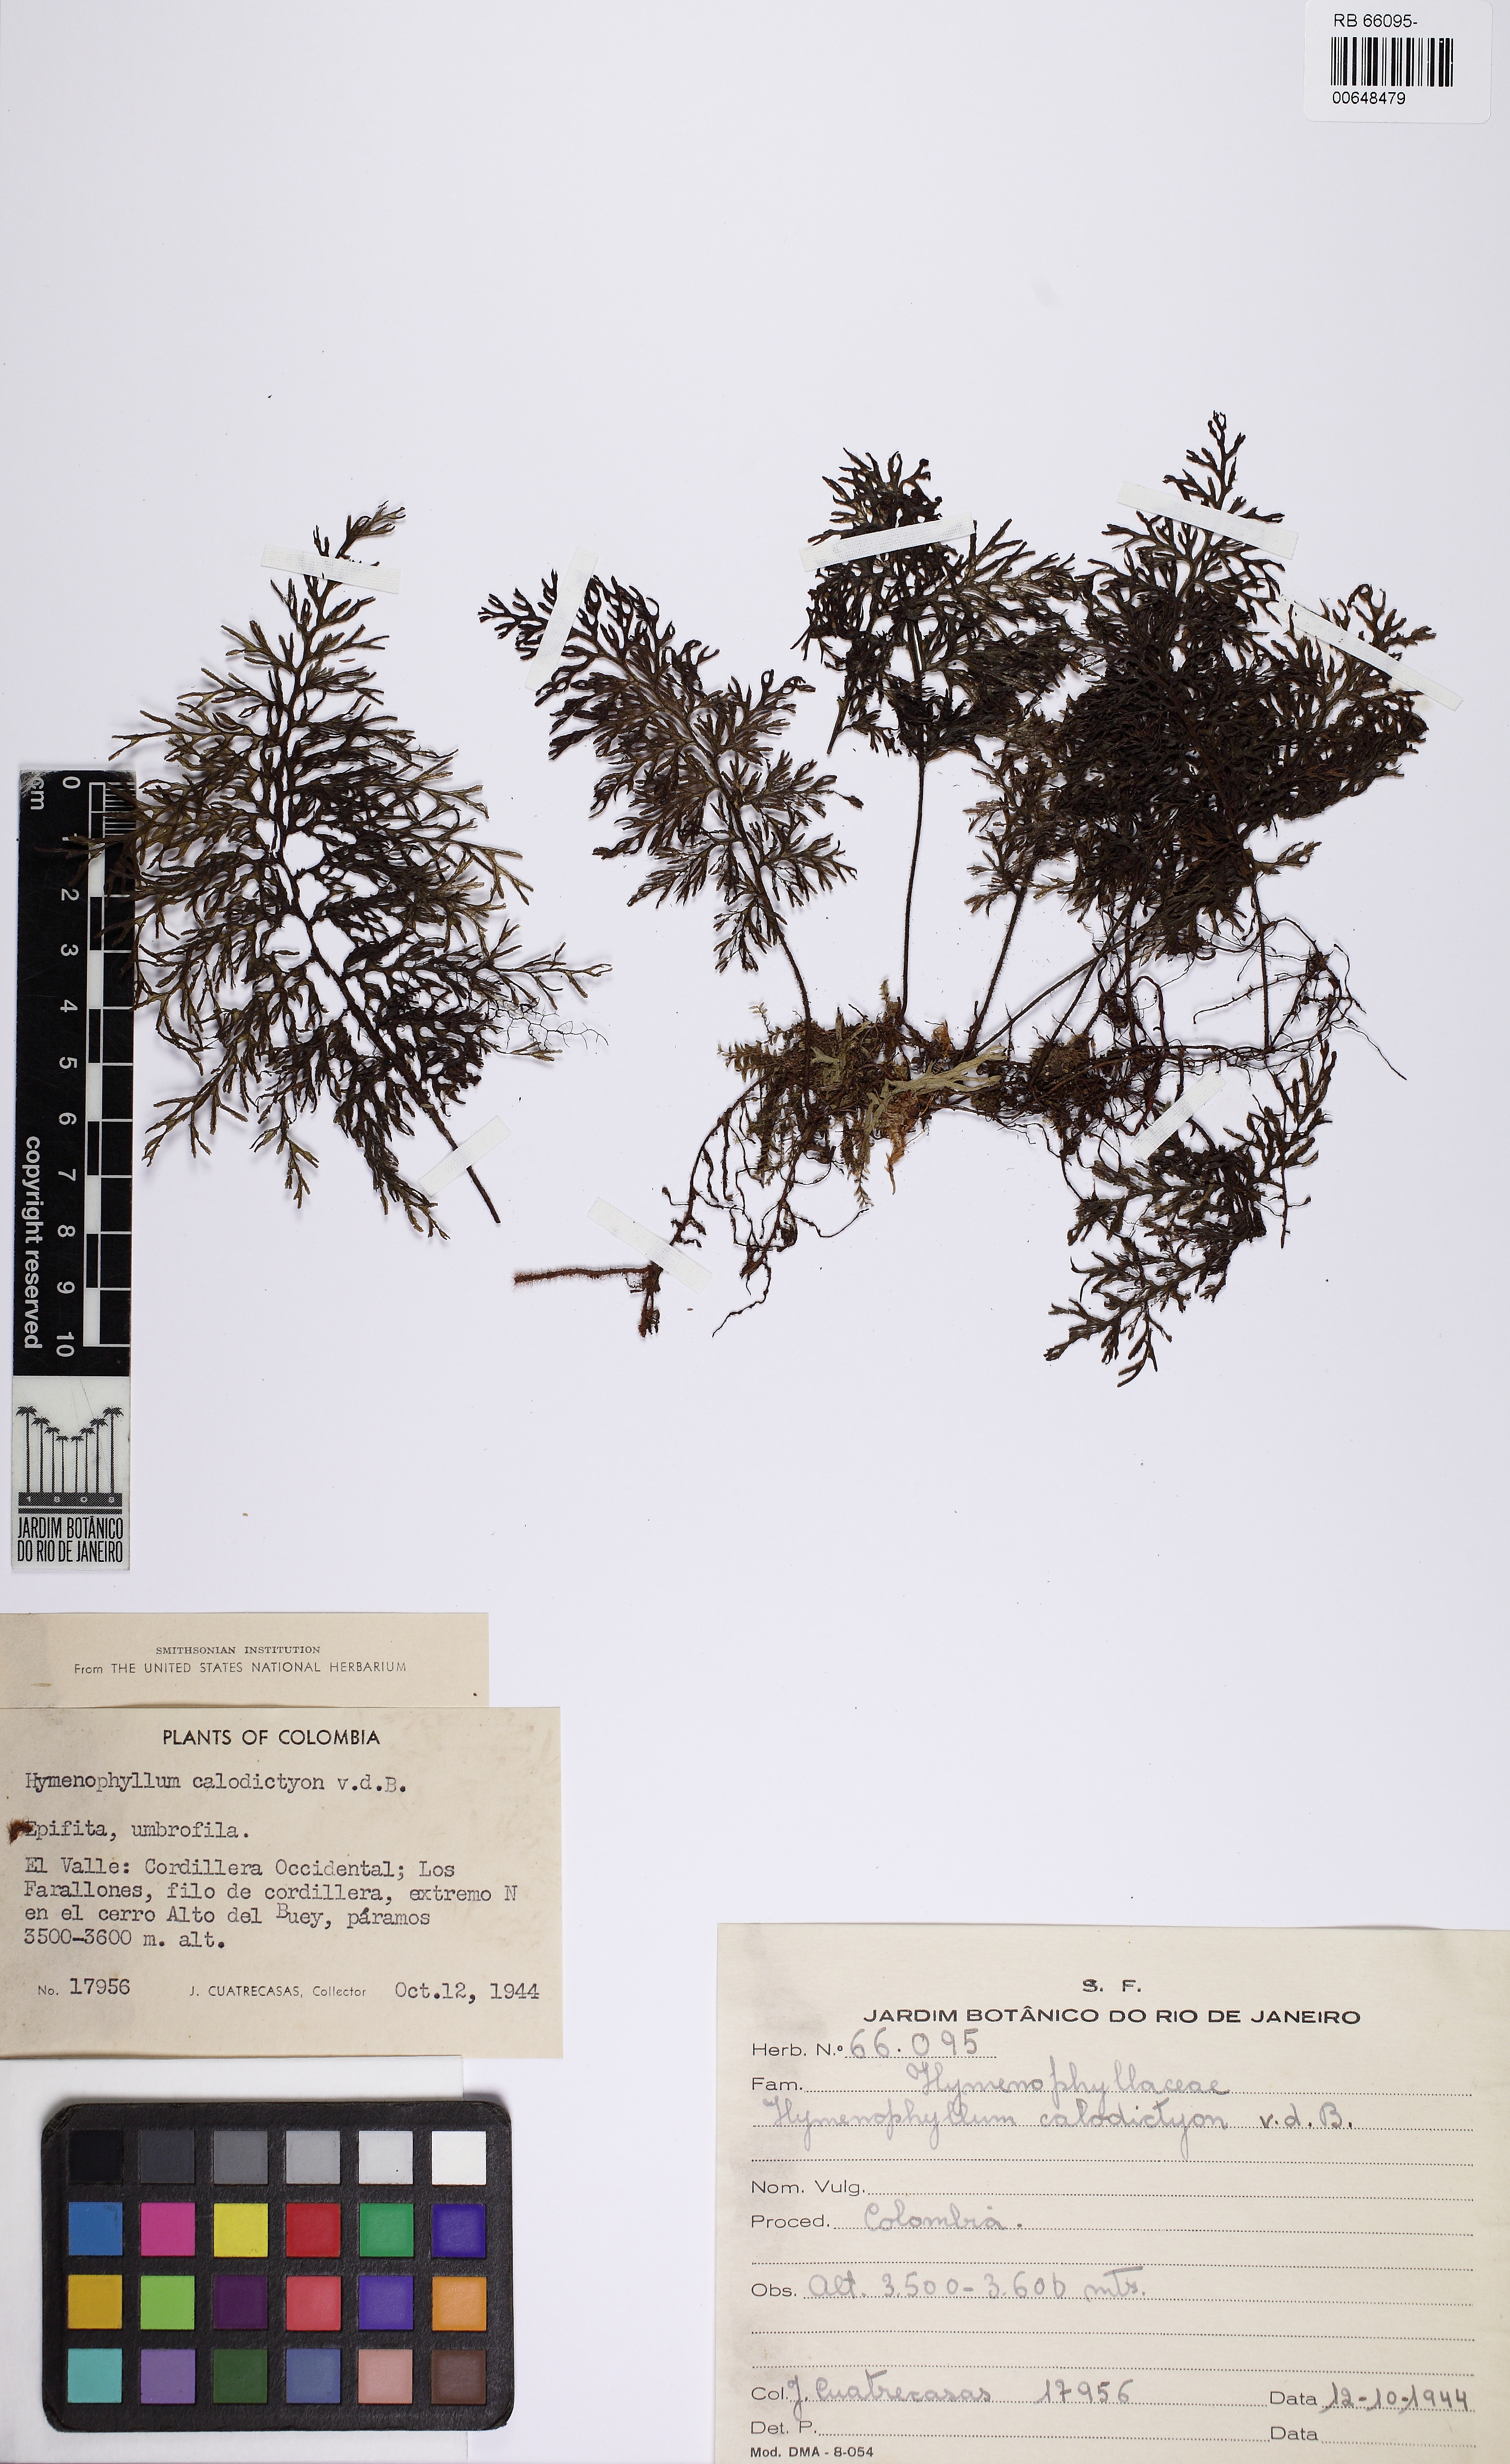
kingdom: Plantae
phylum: Tracheophyta
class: Polypodiopsida
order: Hymenophyllales
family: Hymenophyllaceae
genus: Hymenophyllum
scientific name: Hymenophyllum fucoides
